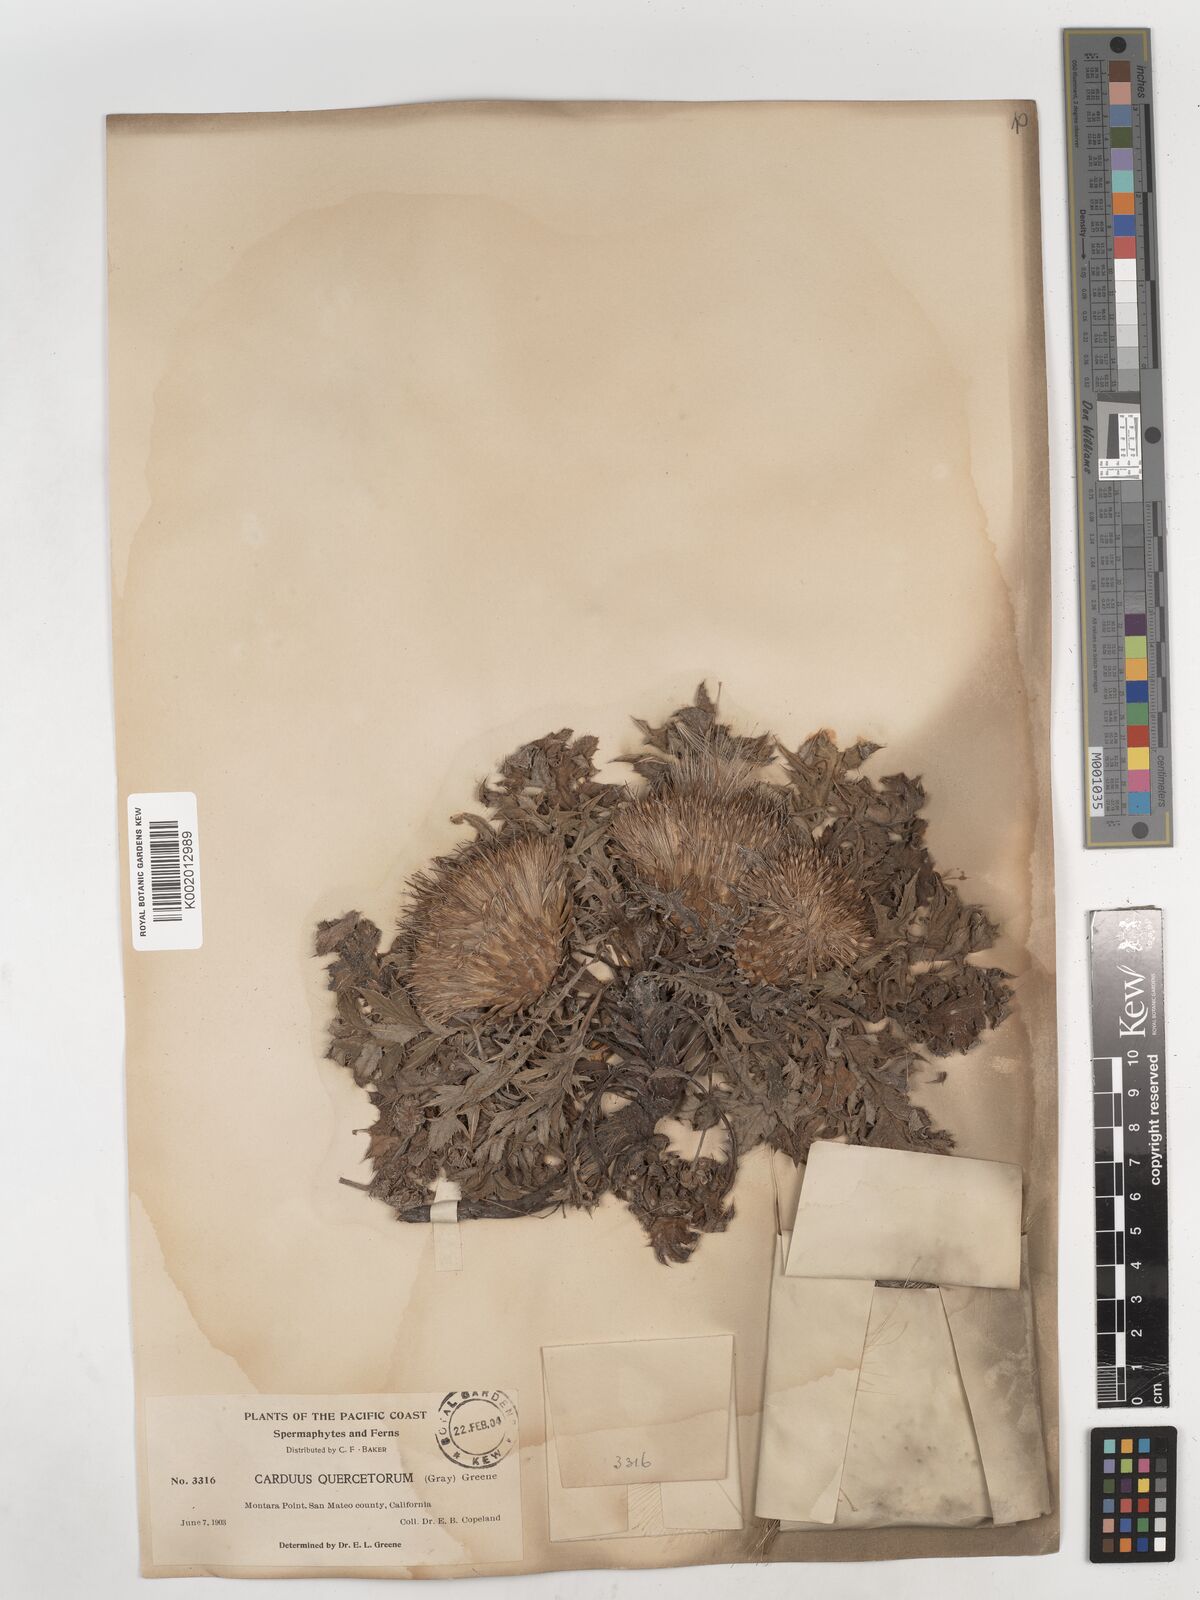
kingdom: Plantae
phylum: Tracheophyta
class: Magnoliopsida
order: Asterales
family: Asteraceae
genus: Cirsium
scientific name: Cirsium quercetorum
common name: Alameda county thistle
